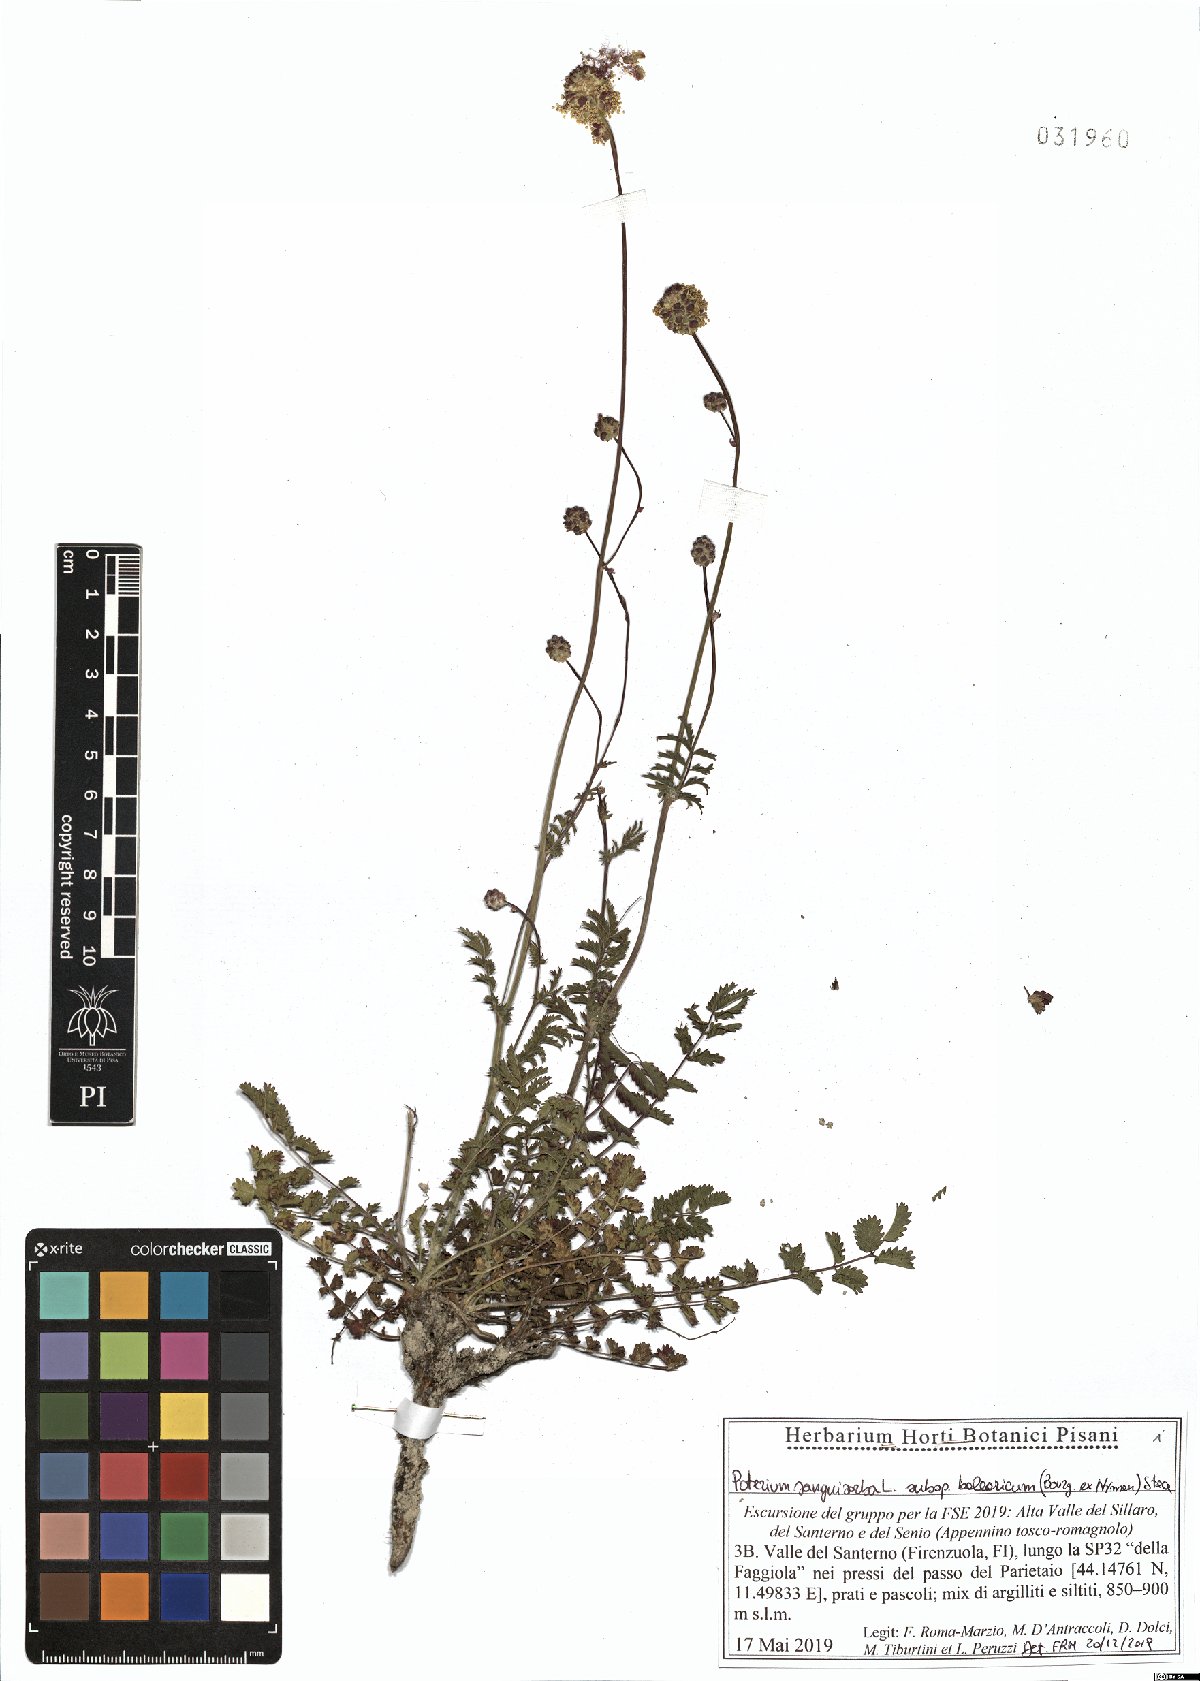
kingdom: Plantae
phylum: Tracheophyta
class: Magnoliopsida
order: Rosales
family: Rosaceae
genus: Poterium
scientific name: Poterium sanguisorba
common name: Salad burnet
